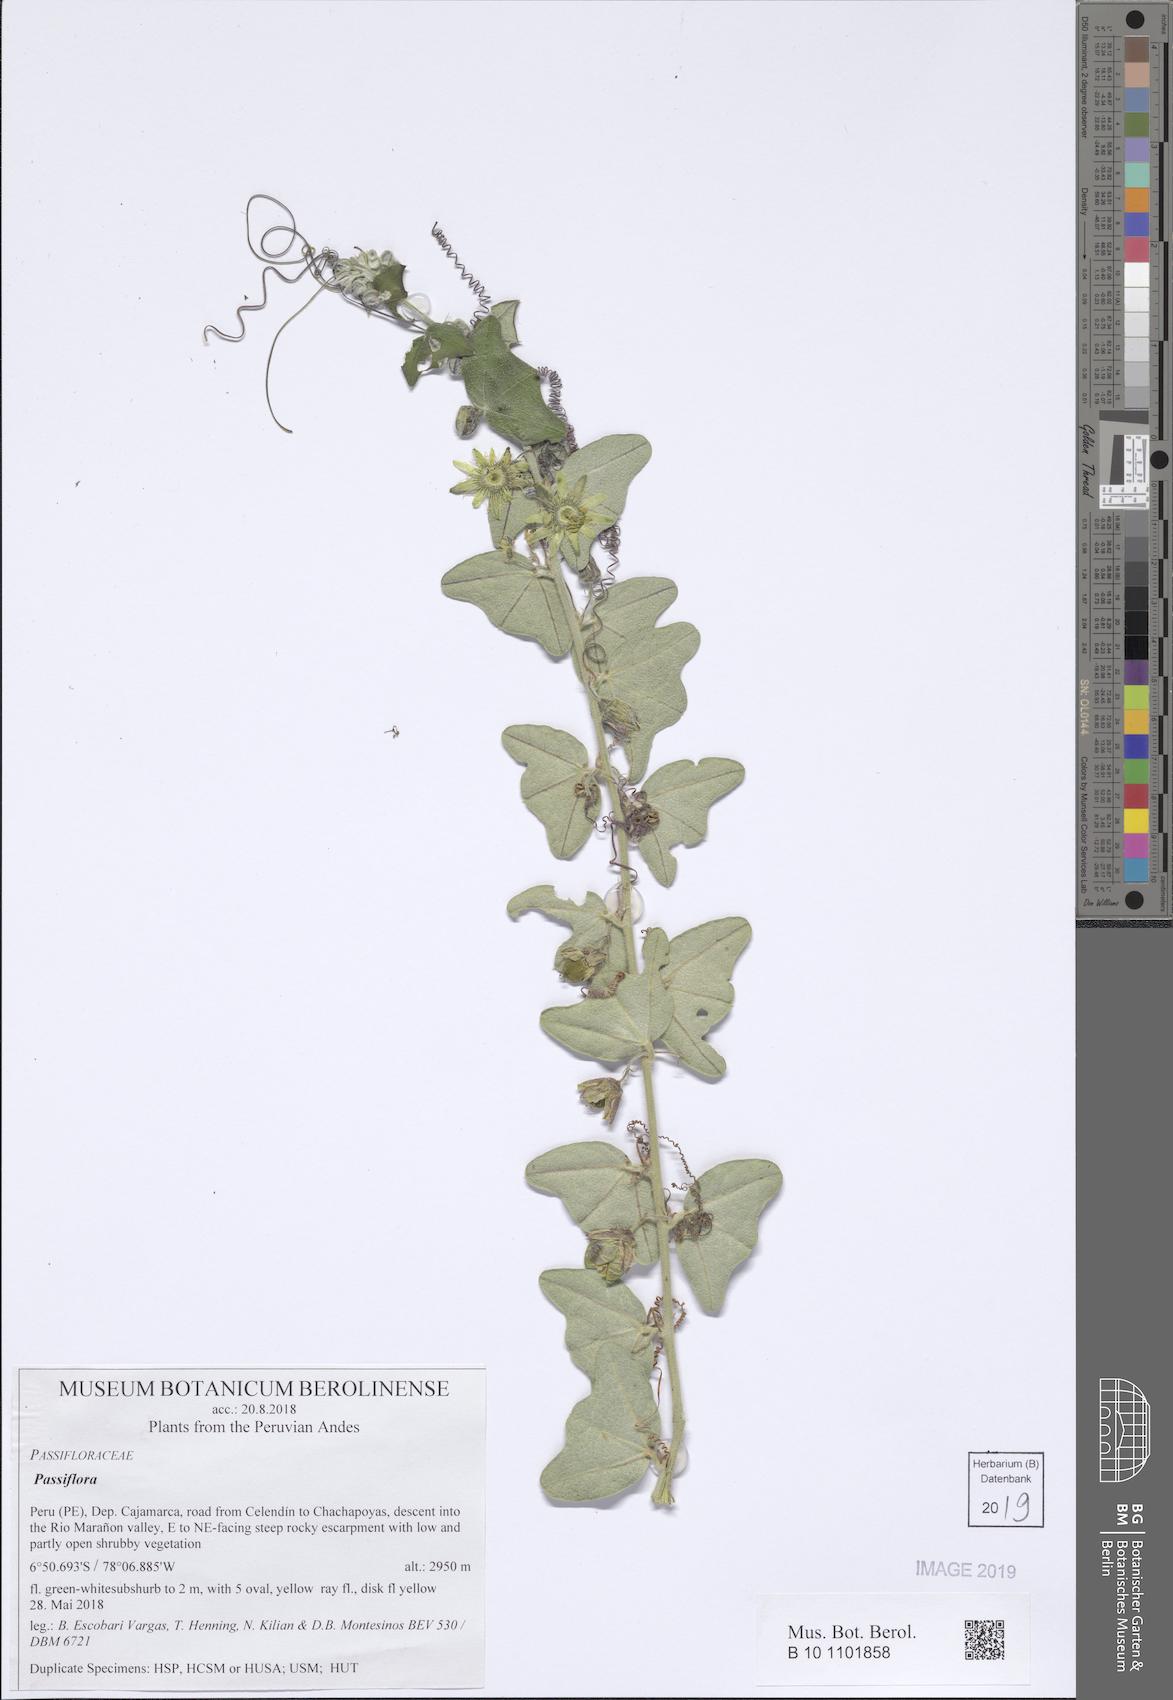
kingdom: Plantae
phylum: Tracheophyta
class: Magnoliopsida
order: Malpighiales
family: Passifloraceae
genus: Passiflora
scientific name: Passiflora sanchezii
